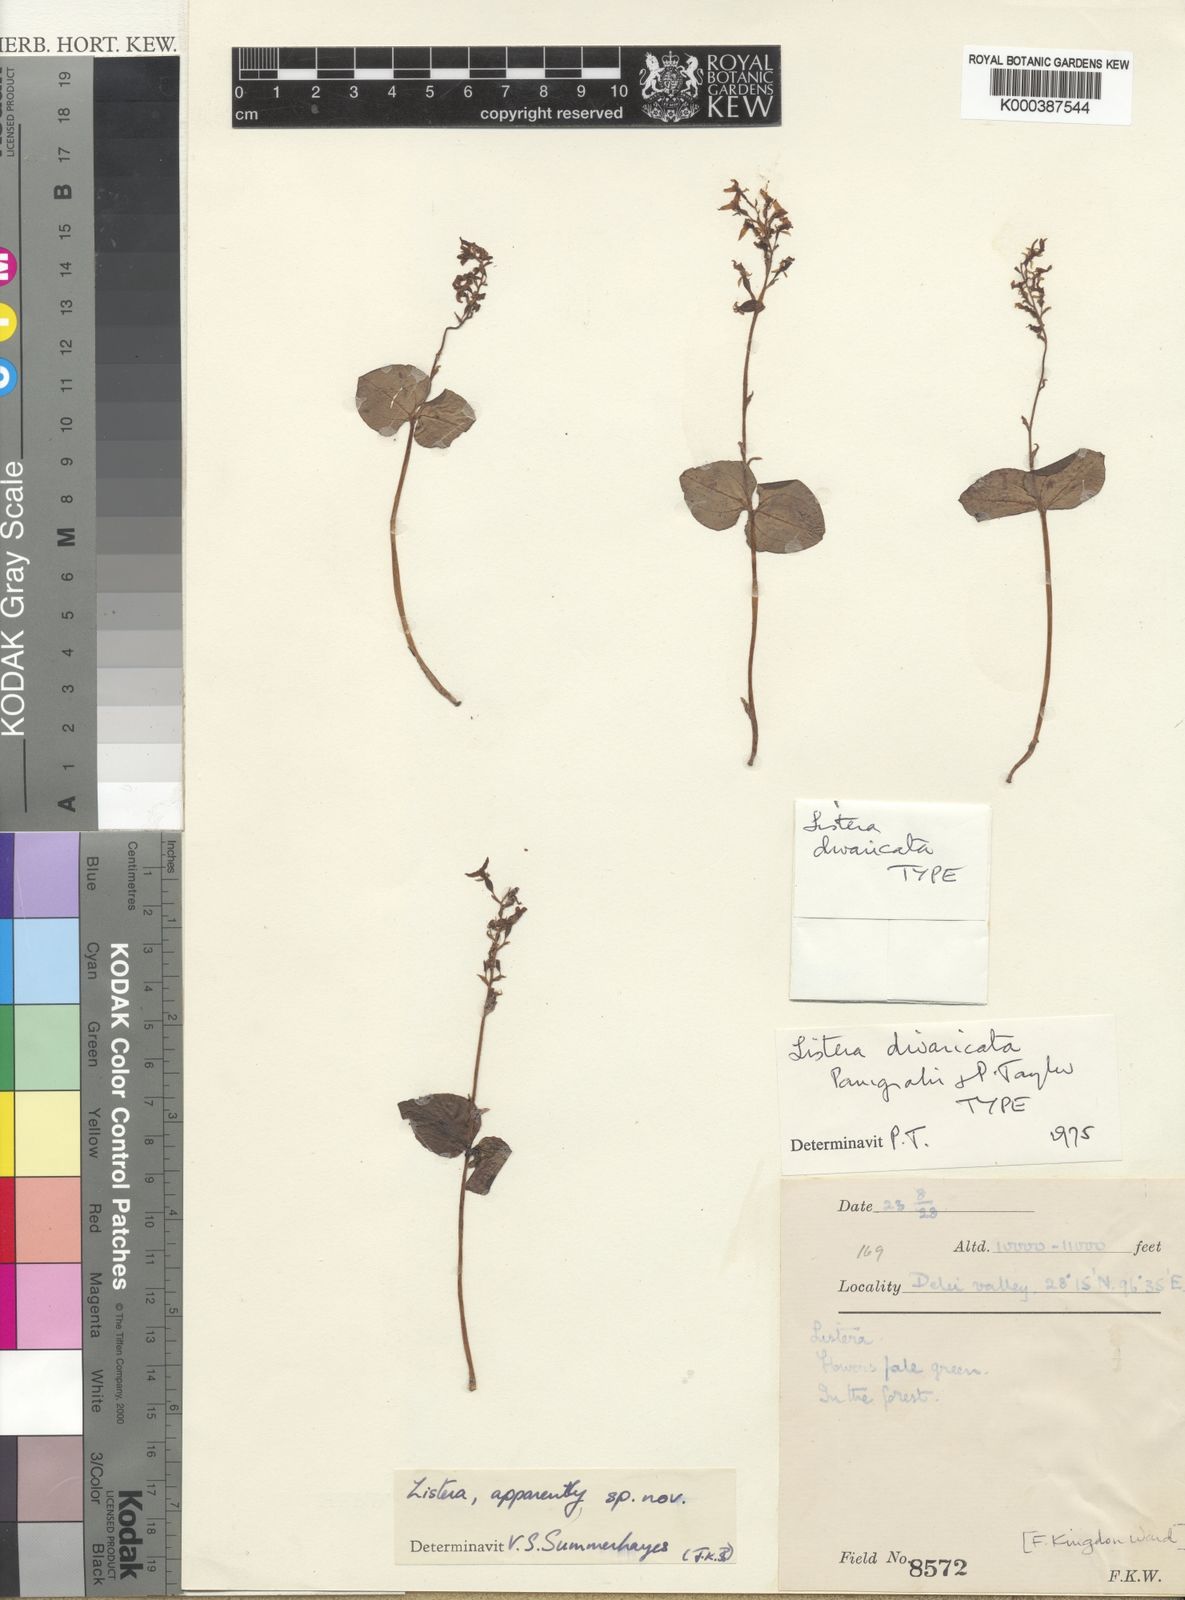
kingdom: Plantae
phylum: Tracheophyta
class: Liliopsida
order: Asparagales
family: Orchidaceae
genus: Neottia
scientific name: Neottia divaricata
